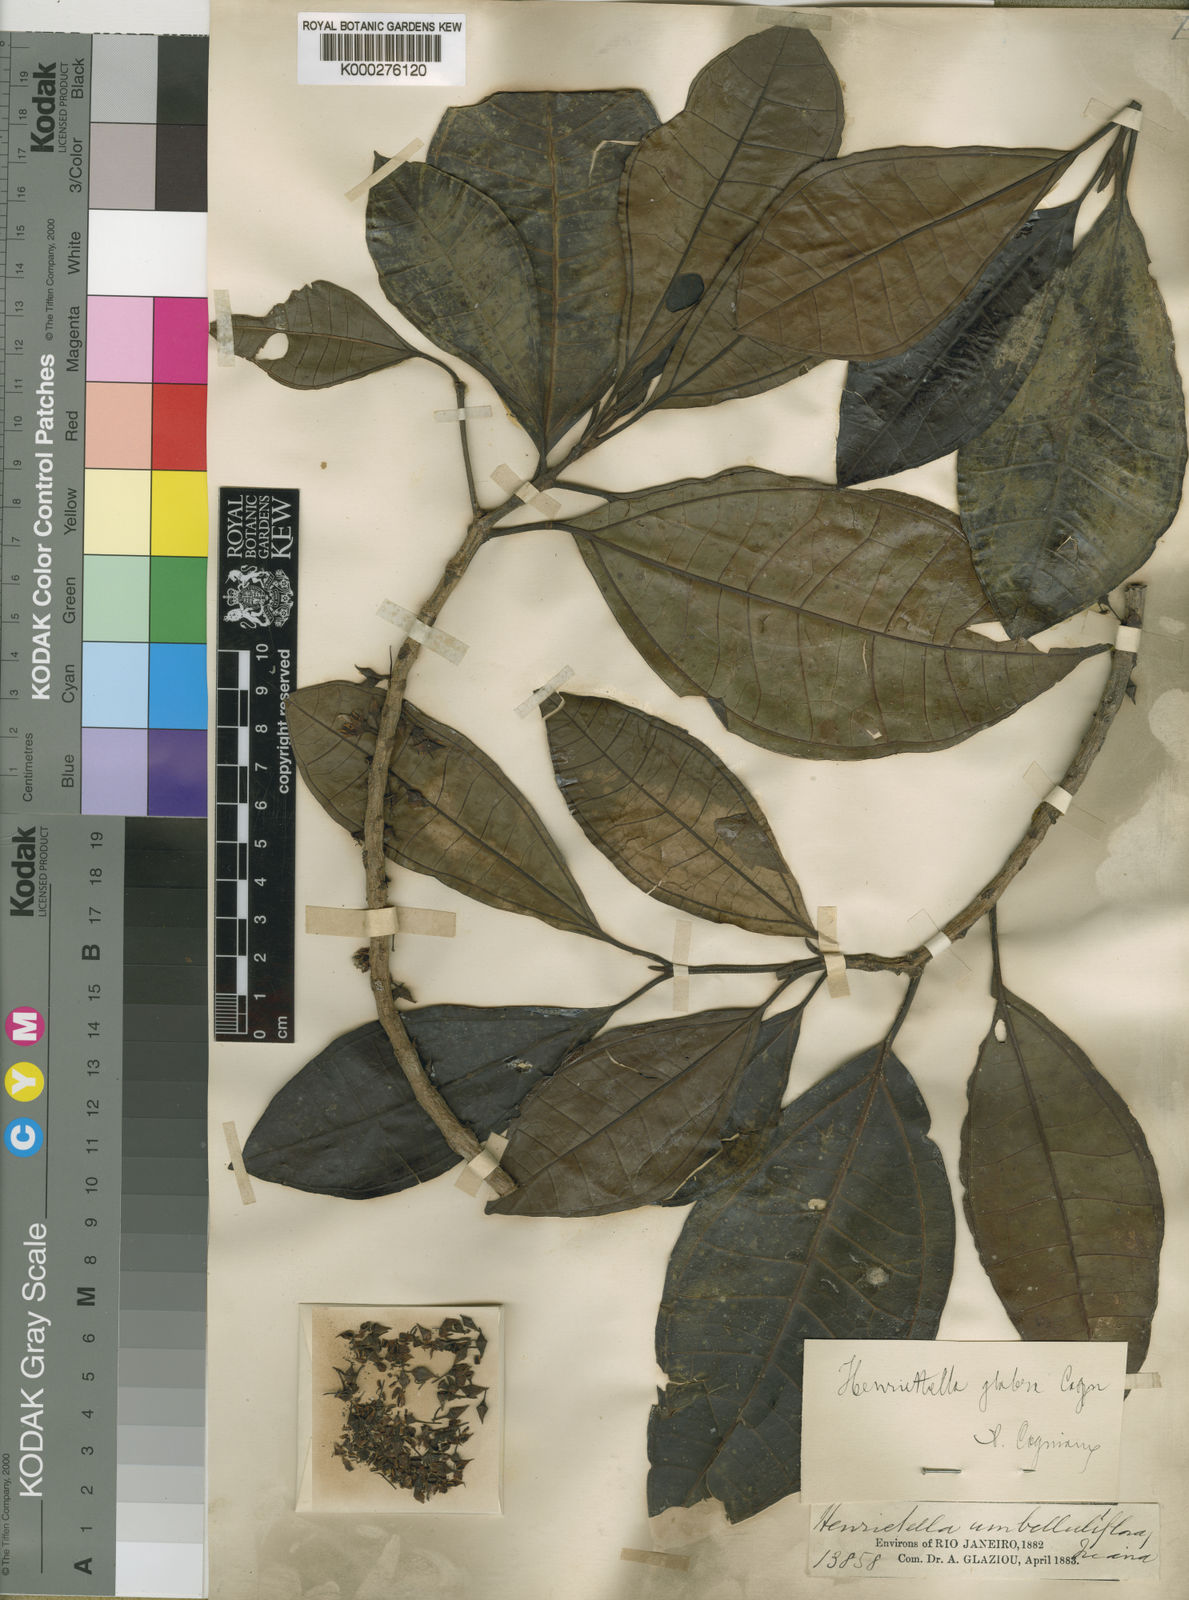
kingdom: Plantae
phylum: Tracheophyta
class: Magnoliopsida
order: Myrtales
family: Melastomataceae
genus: Henriettea
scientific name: Henriettea glabra
